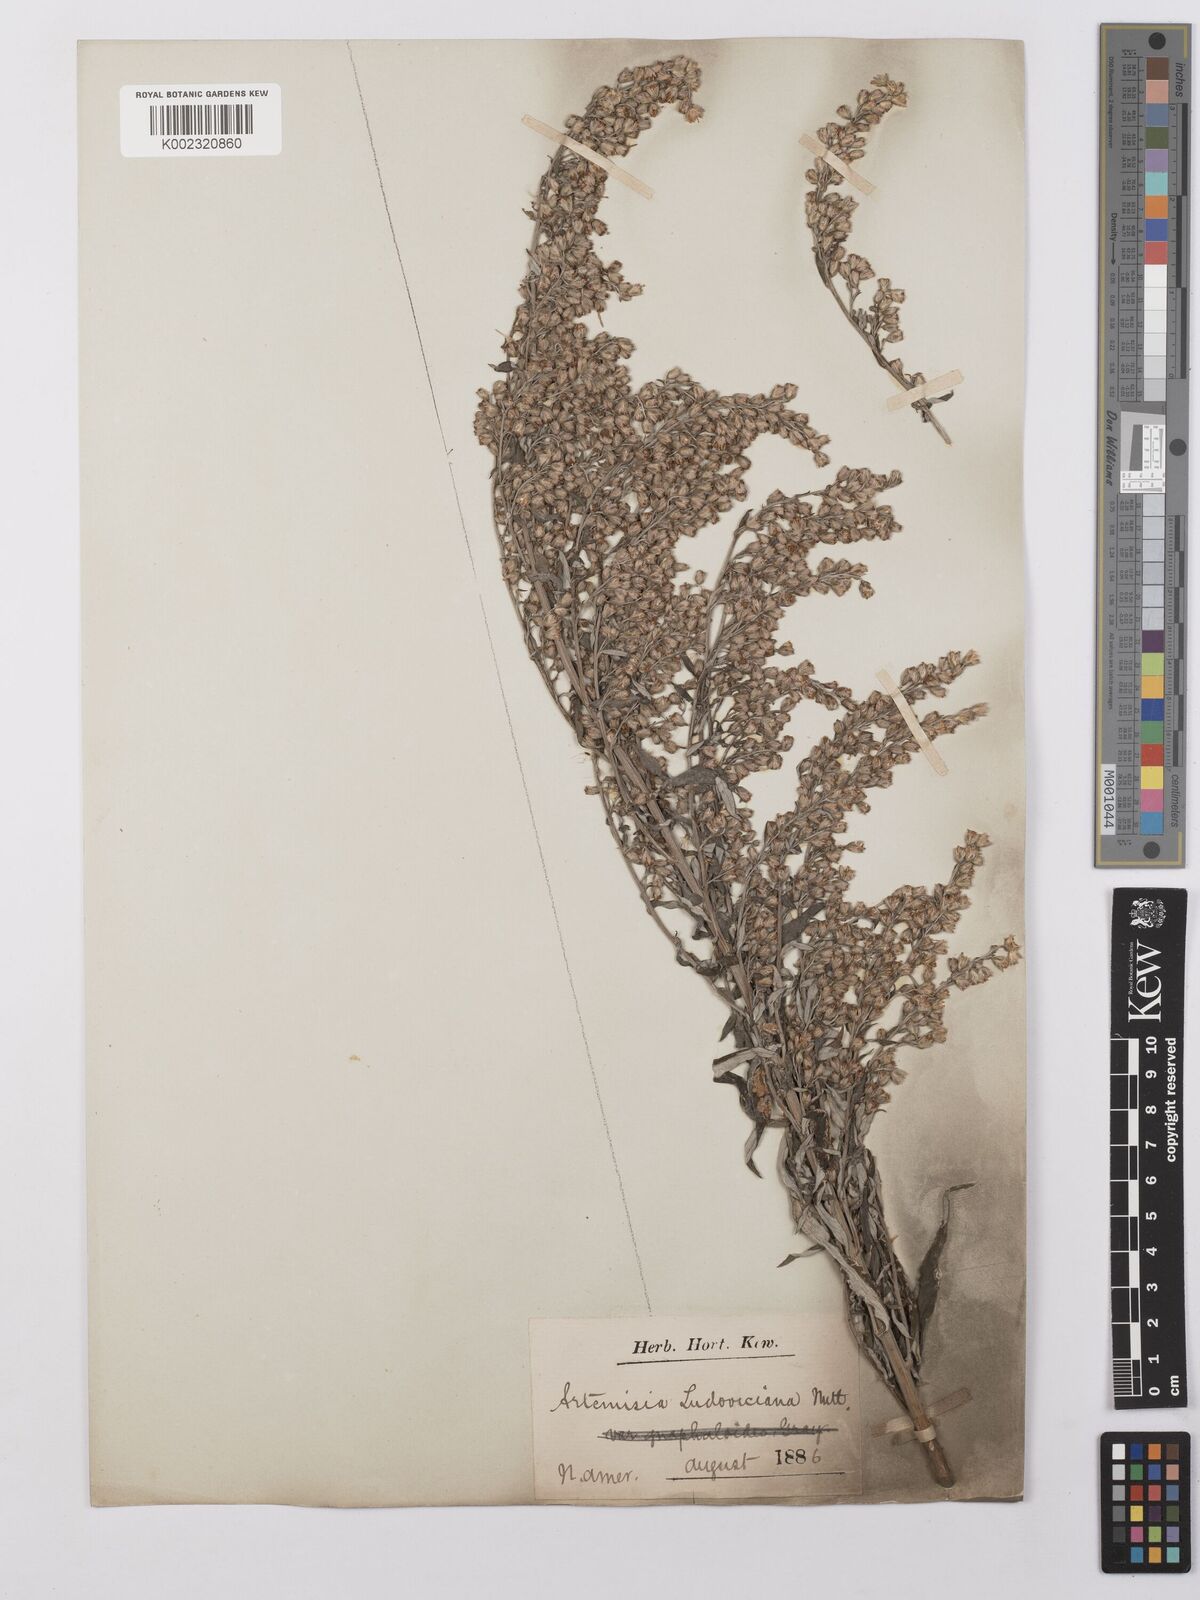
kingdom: Plantae
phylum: Tracheophyta
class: Magnoliopsida
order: Asterales
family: Asteraceae
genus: Artemisia
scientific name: Artemisia ludoviciana
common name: Western mugwort
